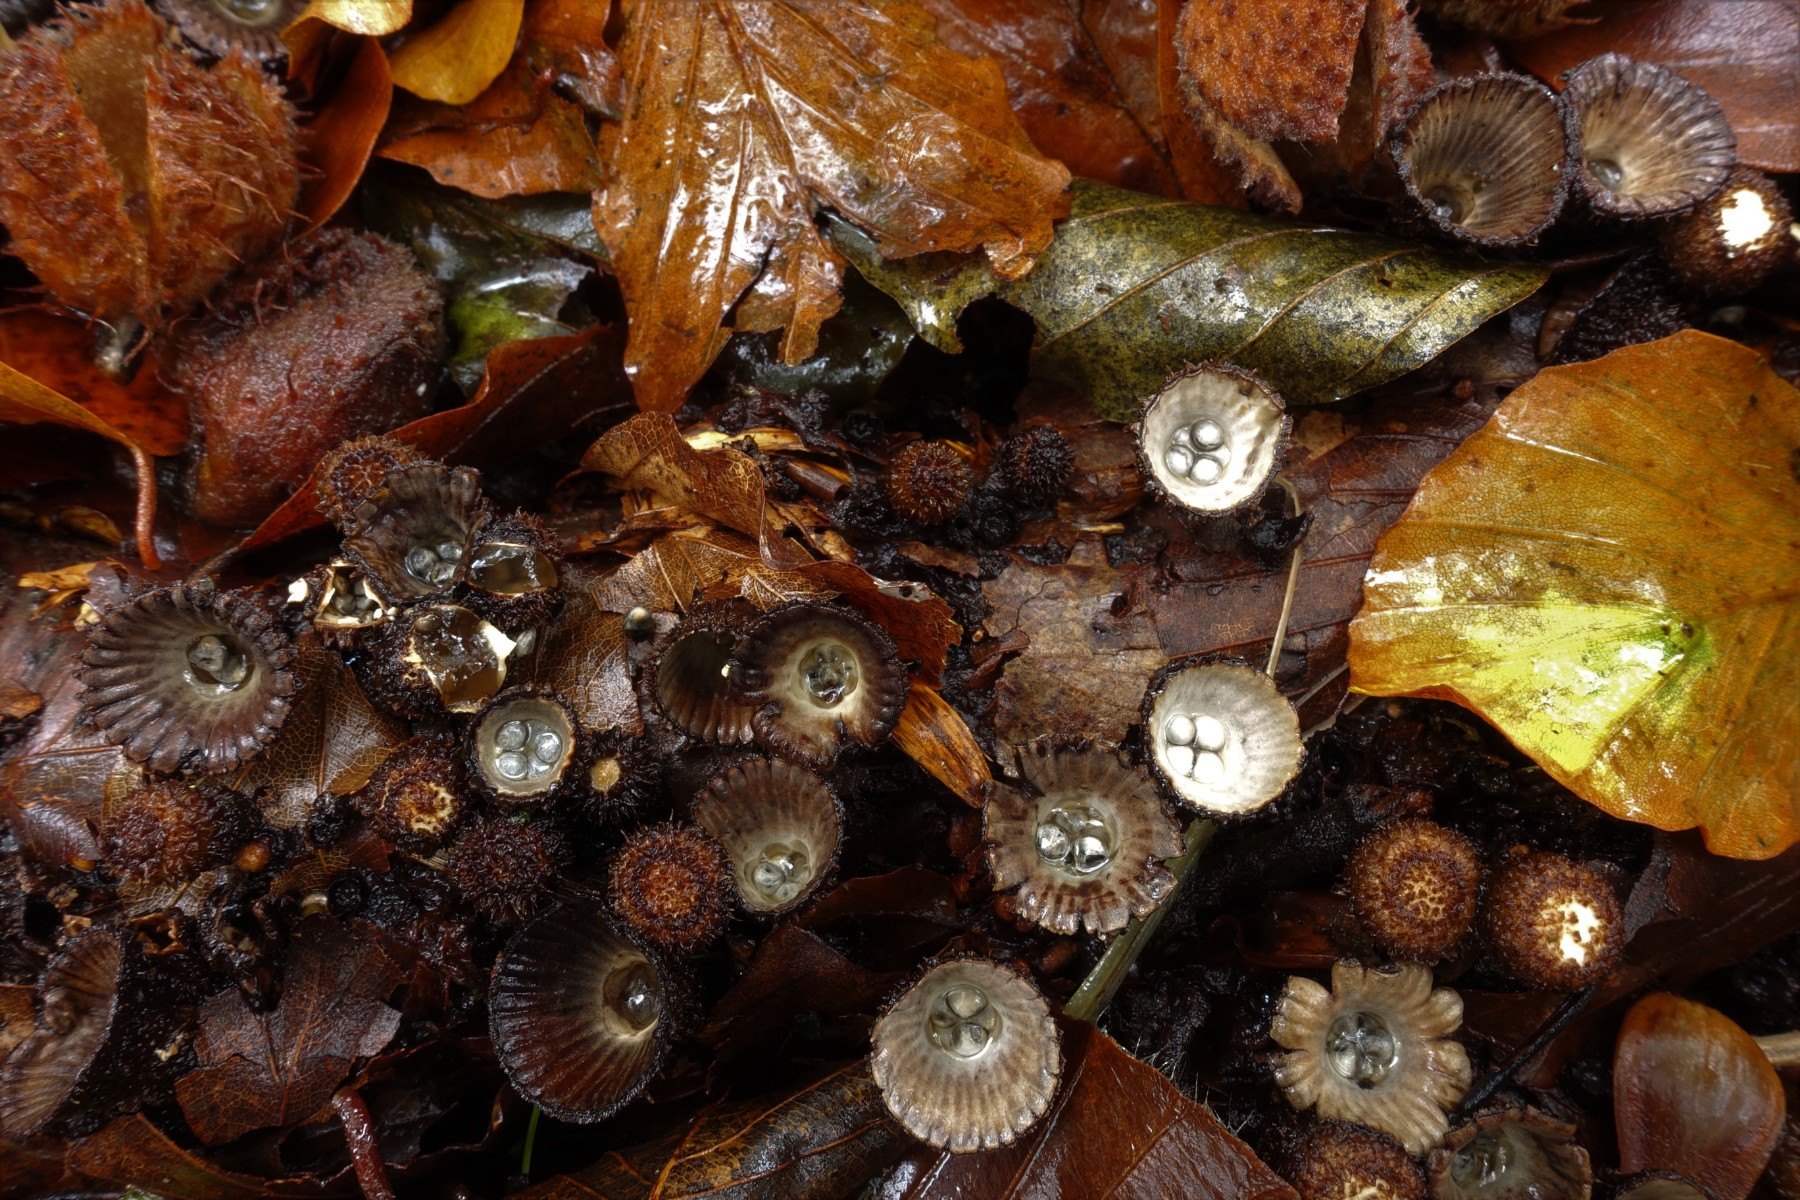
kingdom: Fungi
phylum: Basidiomycota
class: Agaricomycetes
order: Agaricales
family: Agaricaceae
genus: Cyathus
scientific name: Cyathus striatus
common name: stribet redesvamp
